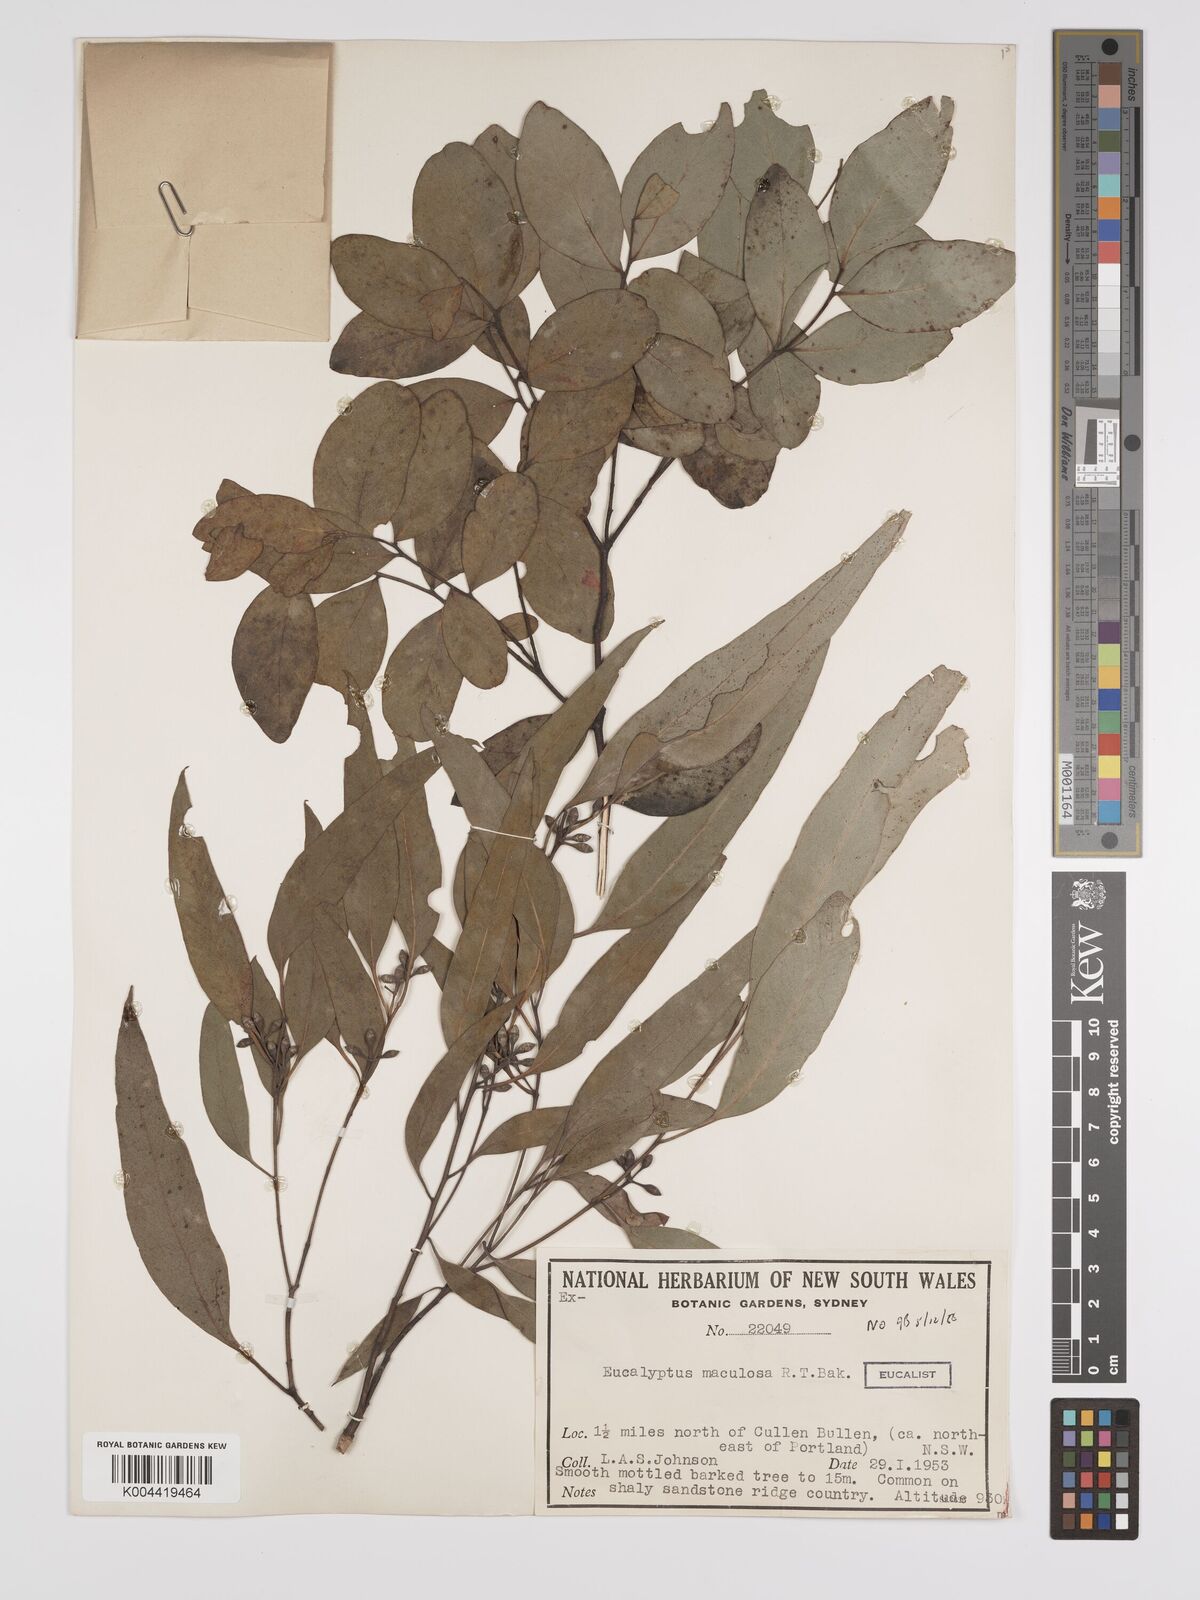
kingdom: Plantae
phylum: Tracheophyta
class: Magnoliopsida
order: Myrtales
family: Myrtaceae
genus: Eucalyptus
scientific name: Eucalyptus mannifera
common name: Manna gum
